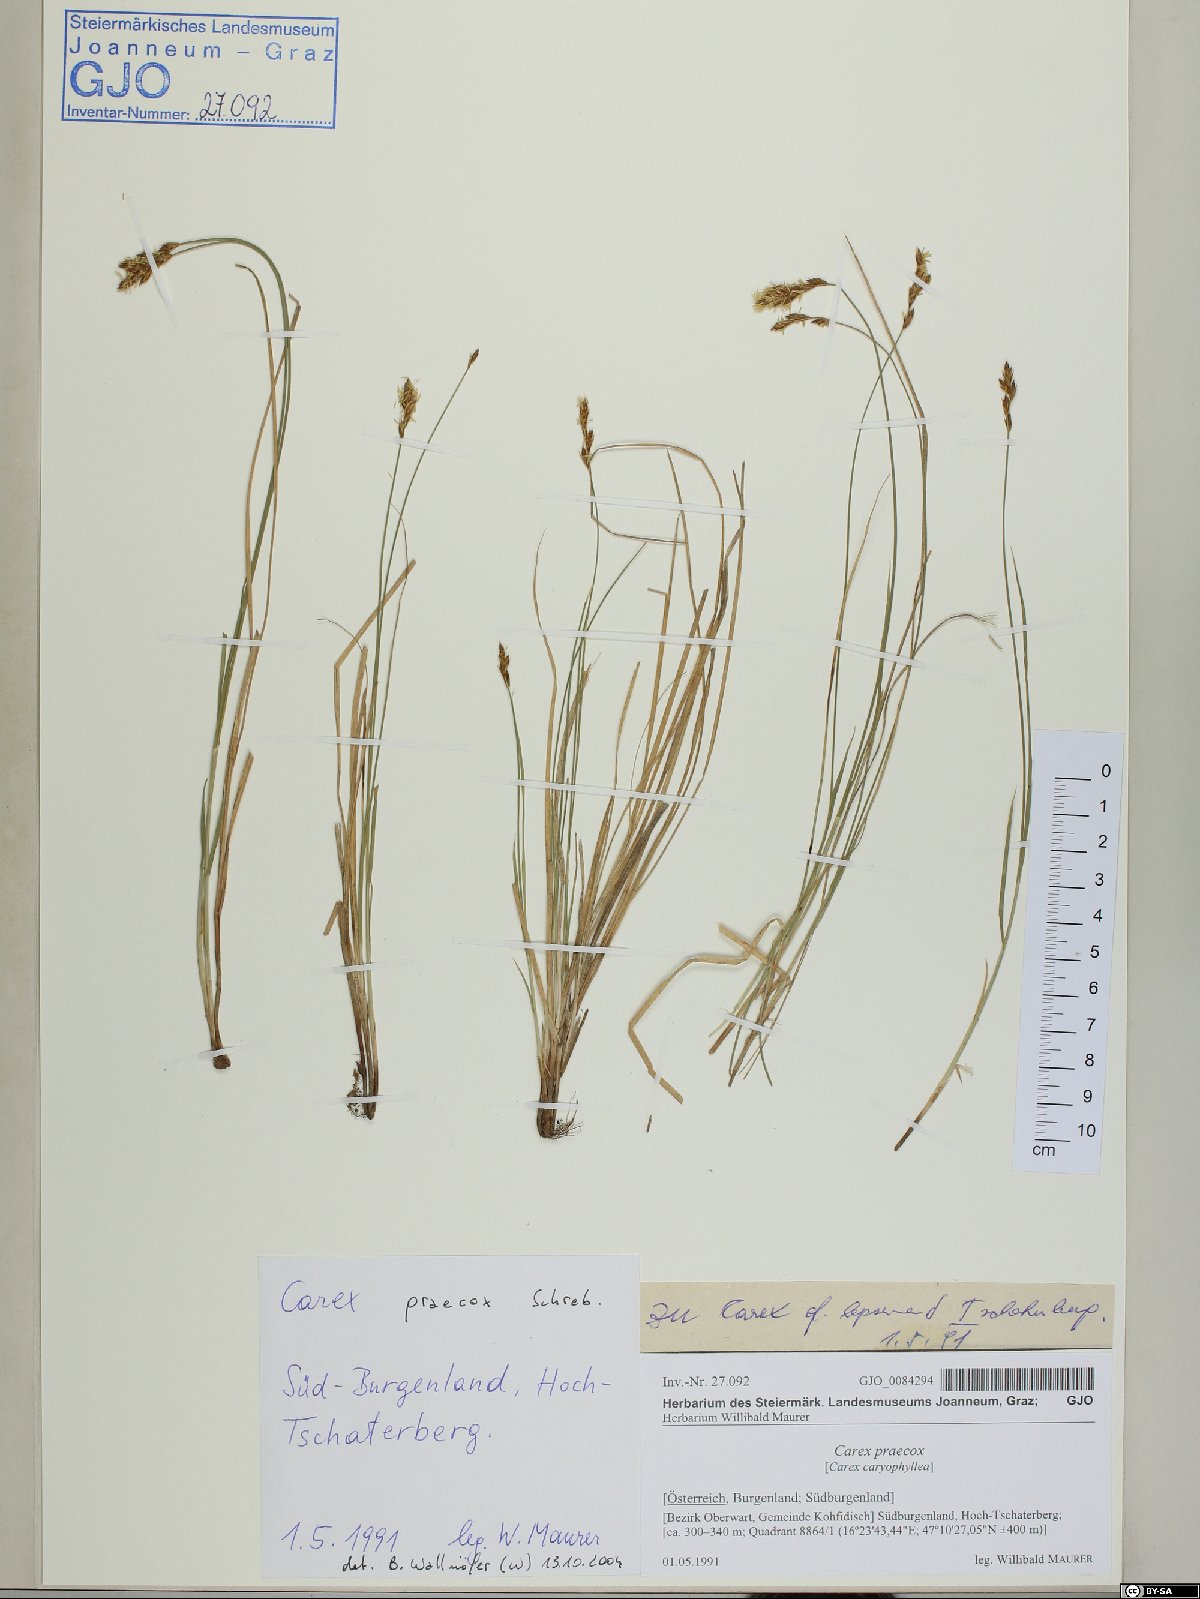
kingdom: Plantae
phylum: Tracheophyta
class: Liliopsida
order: Poales
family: Cyperaceae
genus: Carex
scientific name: Carex praecox
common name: Early sedge
